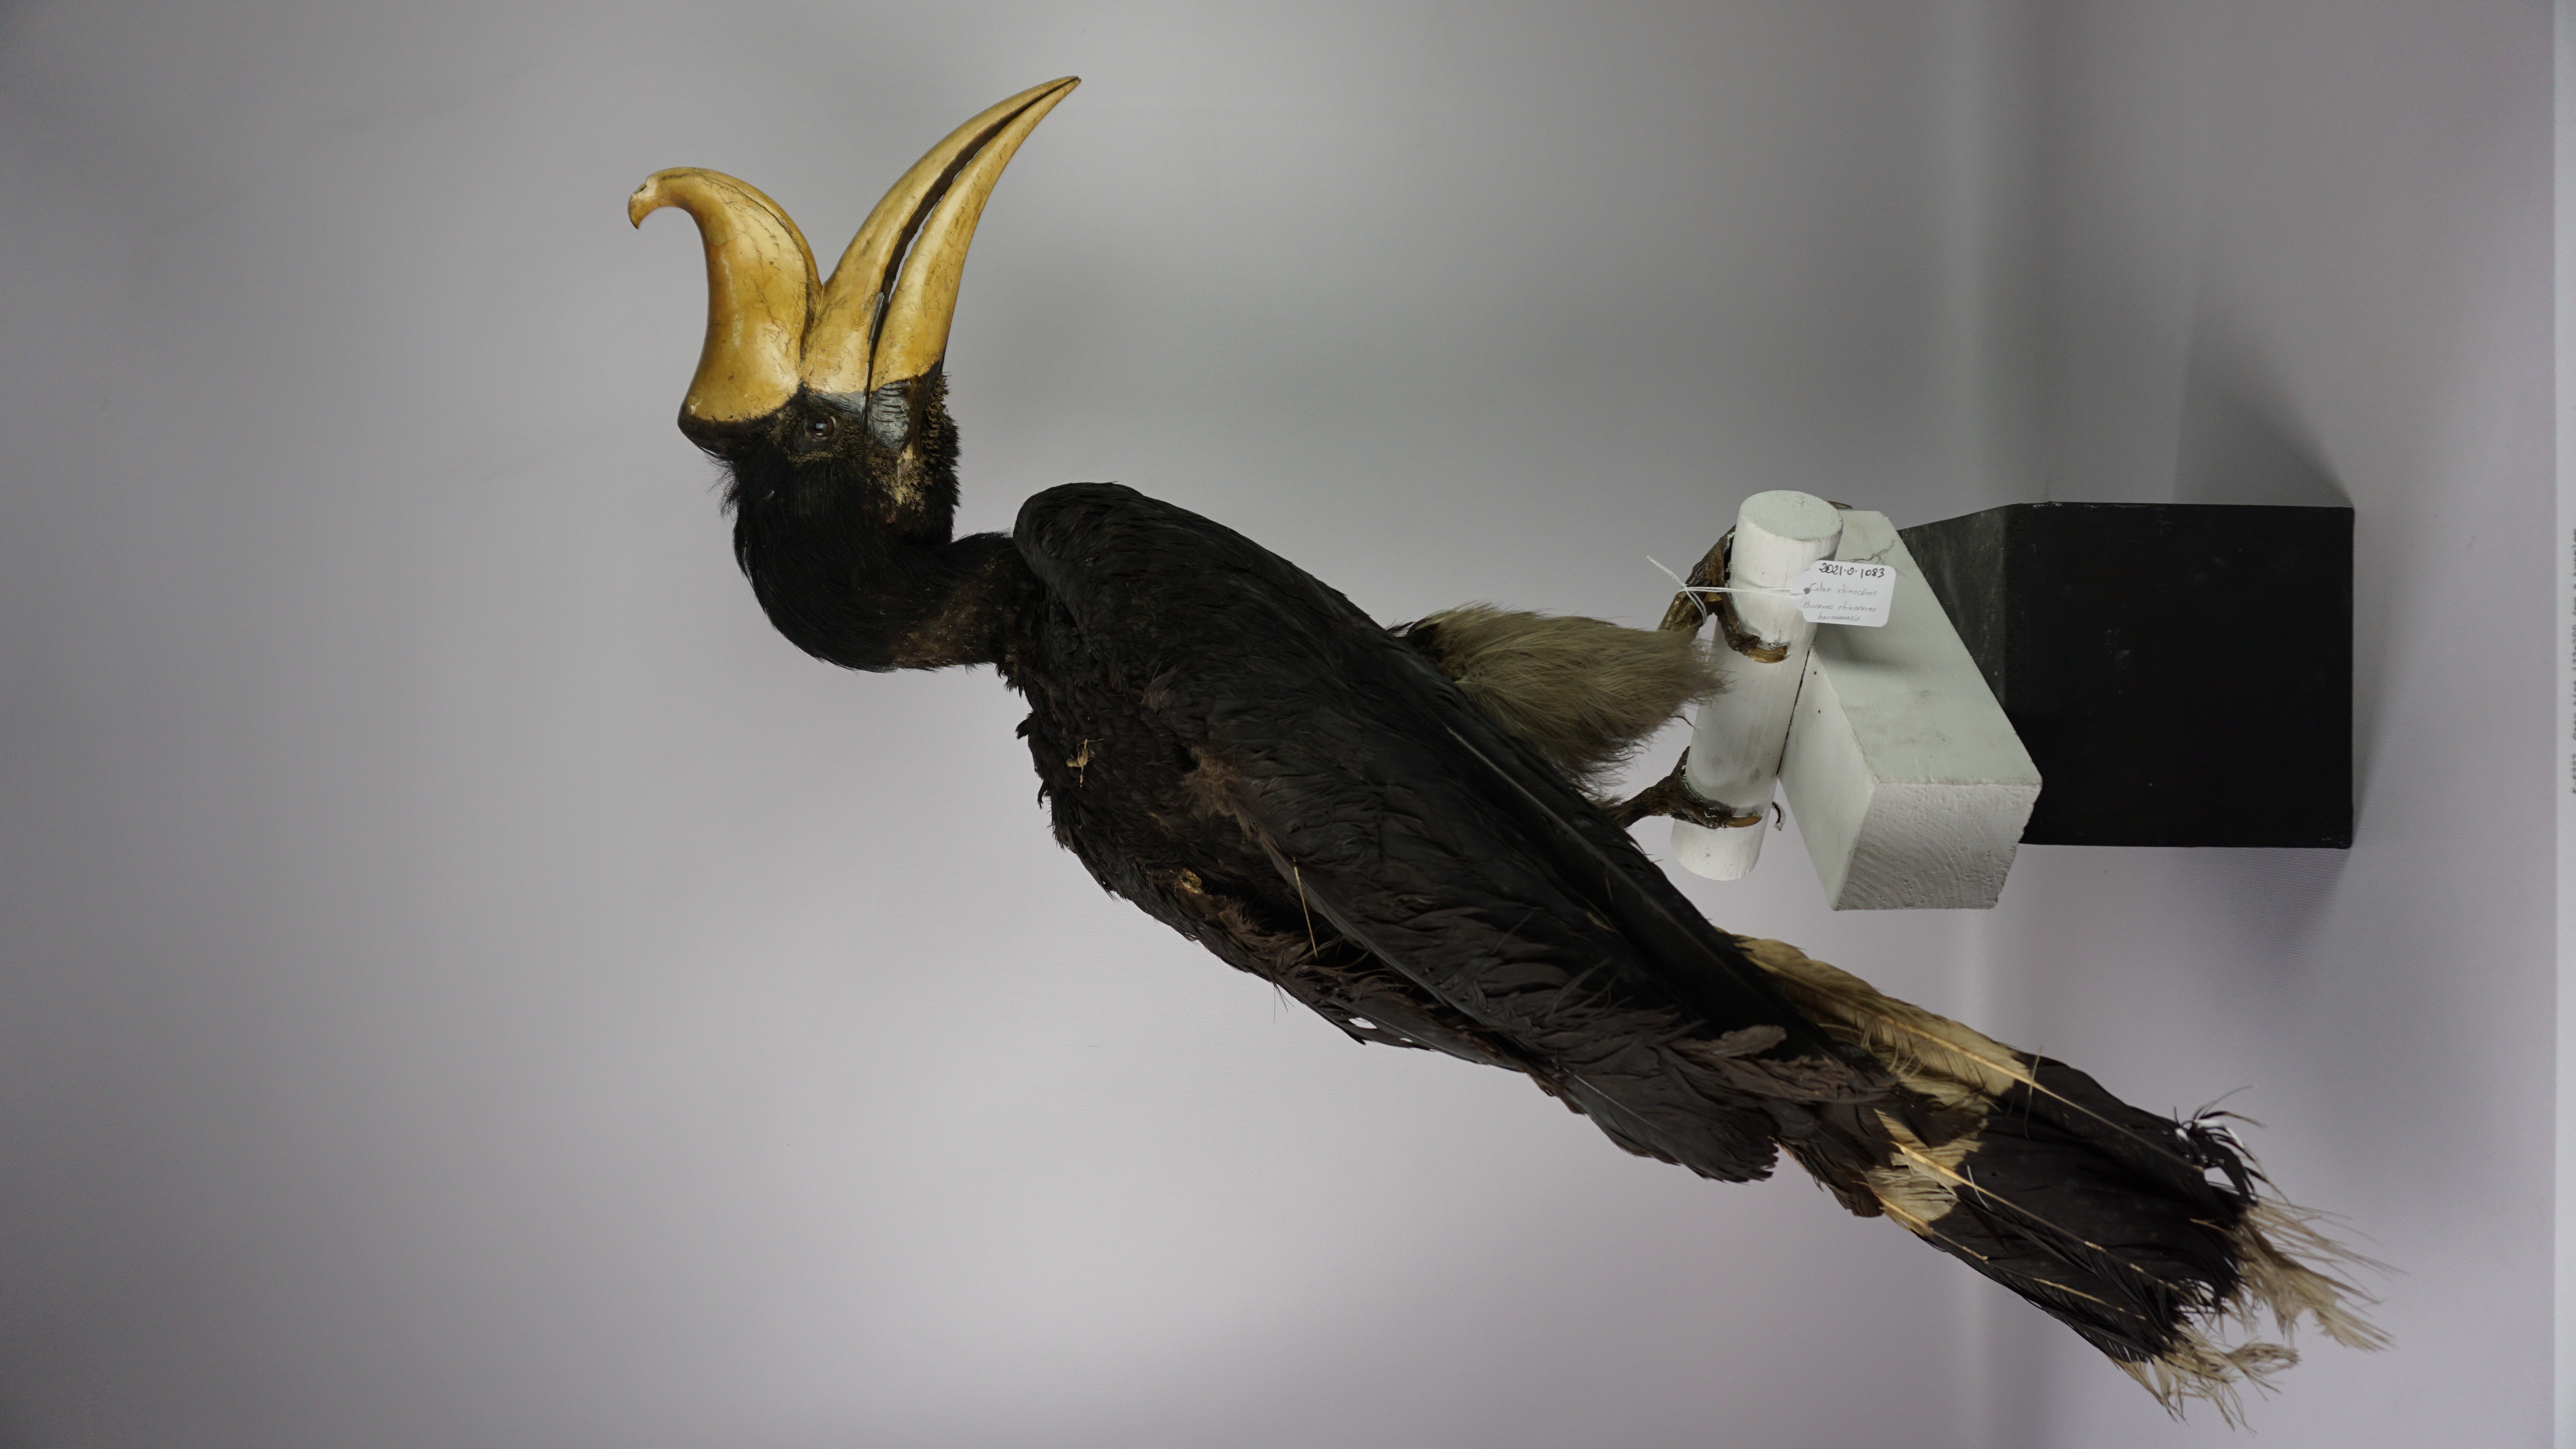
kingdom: Animalia
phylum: Chordata
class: Aves
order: Bucerotiformes
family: Bucerotidae
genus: Buceros
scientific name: Buceros rhinoceros
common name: Rhinoceros hornbill
